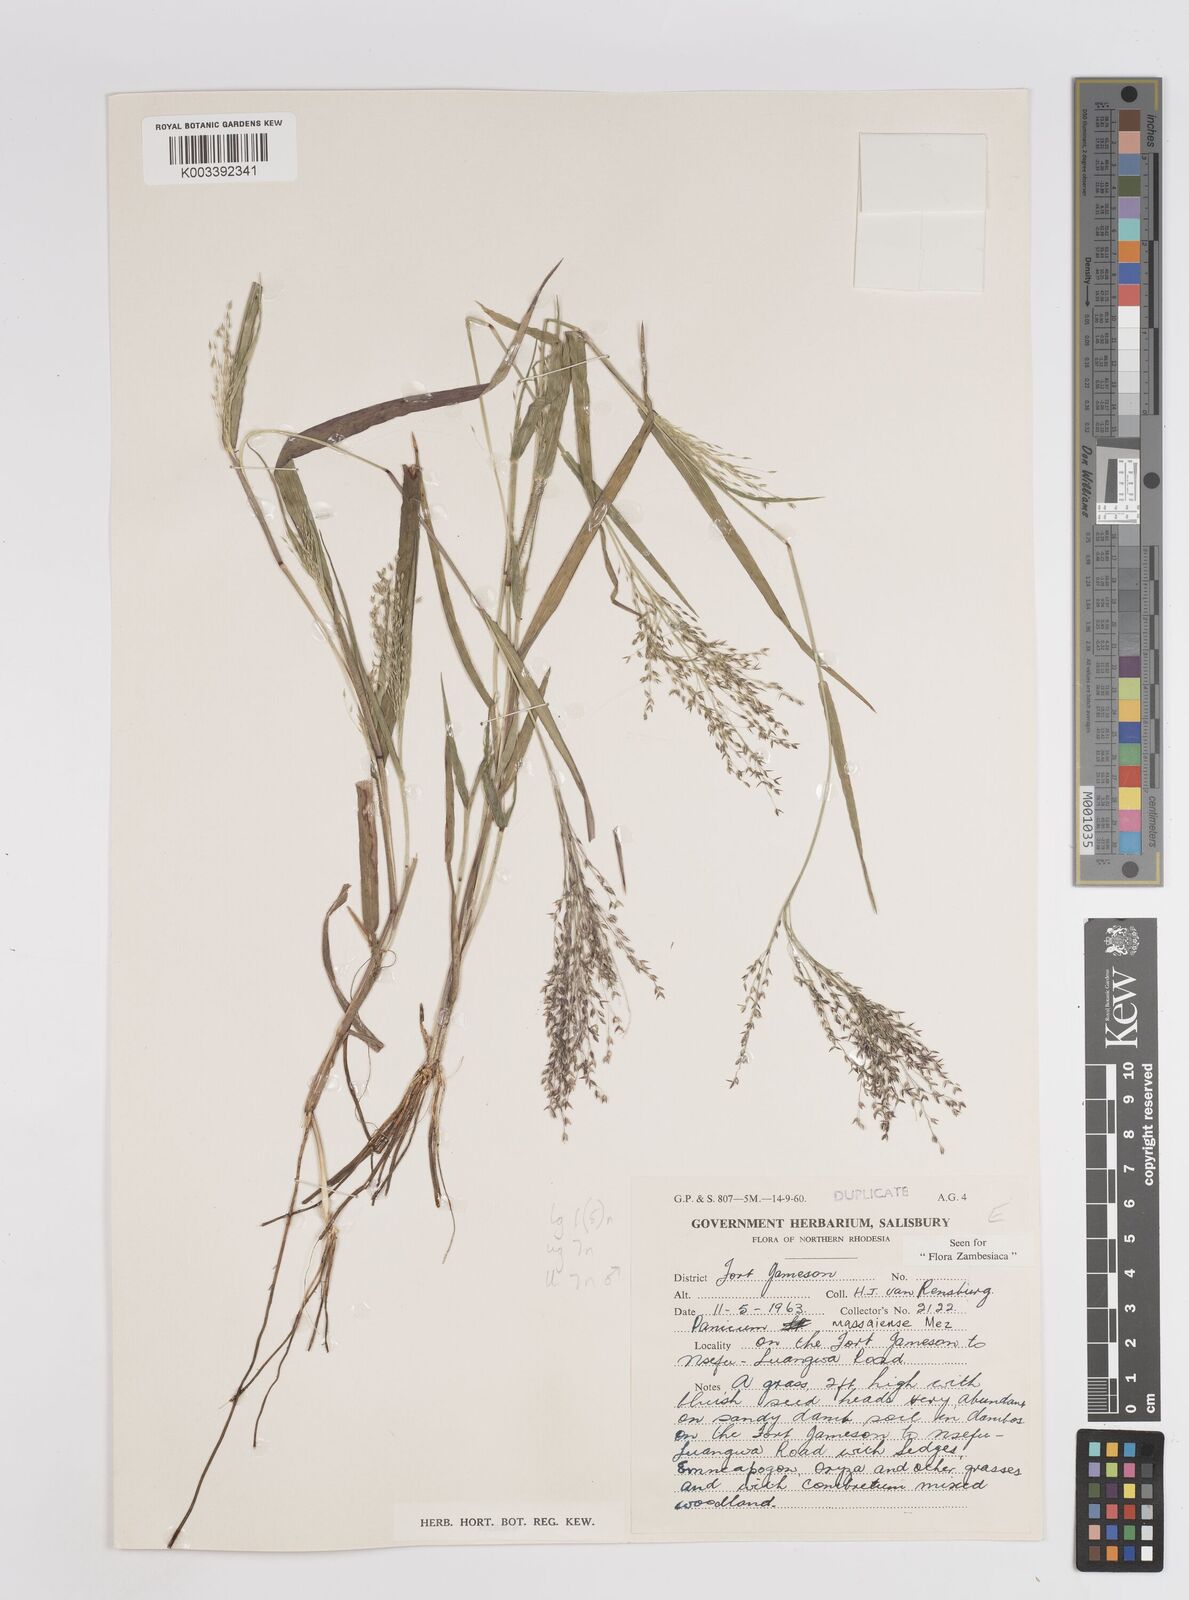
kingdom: Plantae
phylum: Tracheophyta
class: Liliopsida
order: Poales
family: Poaceae
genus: Panicum
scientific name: Panicum massaiense
